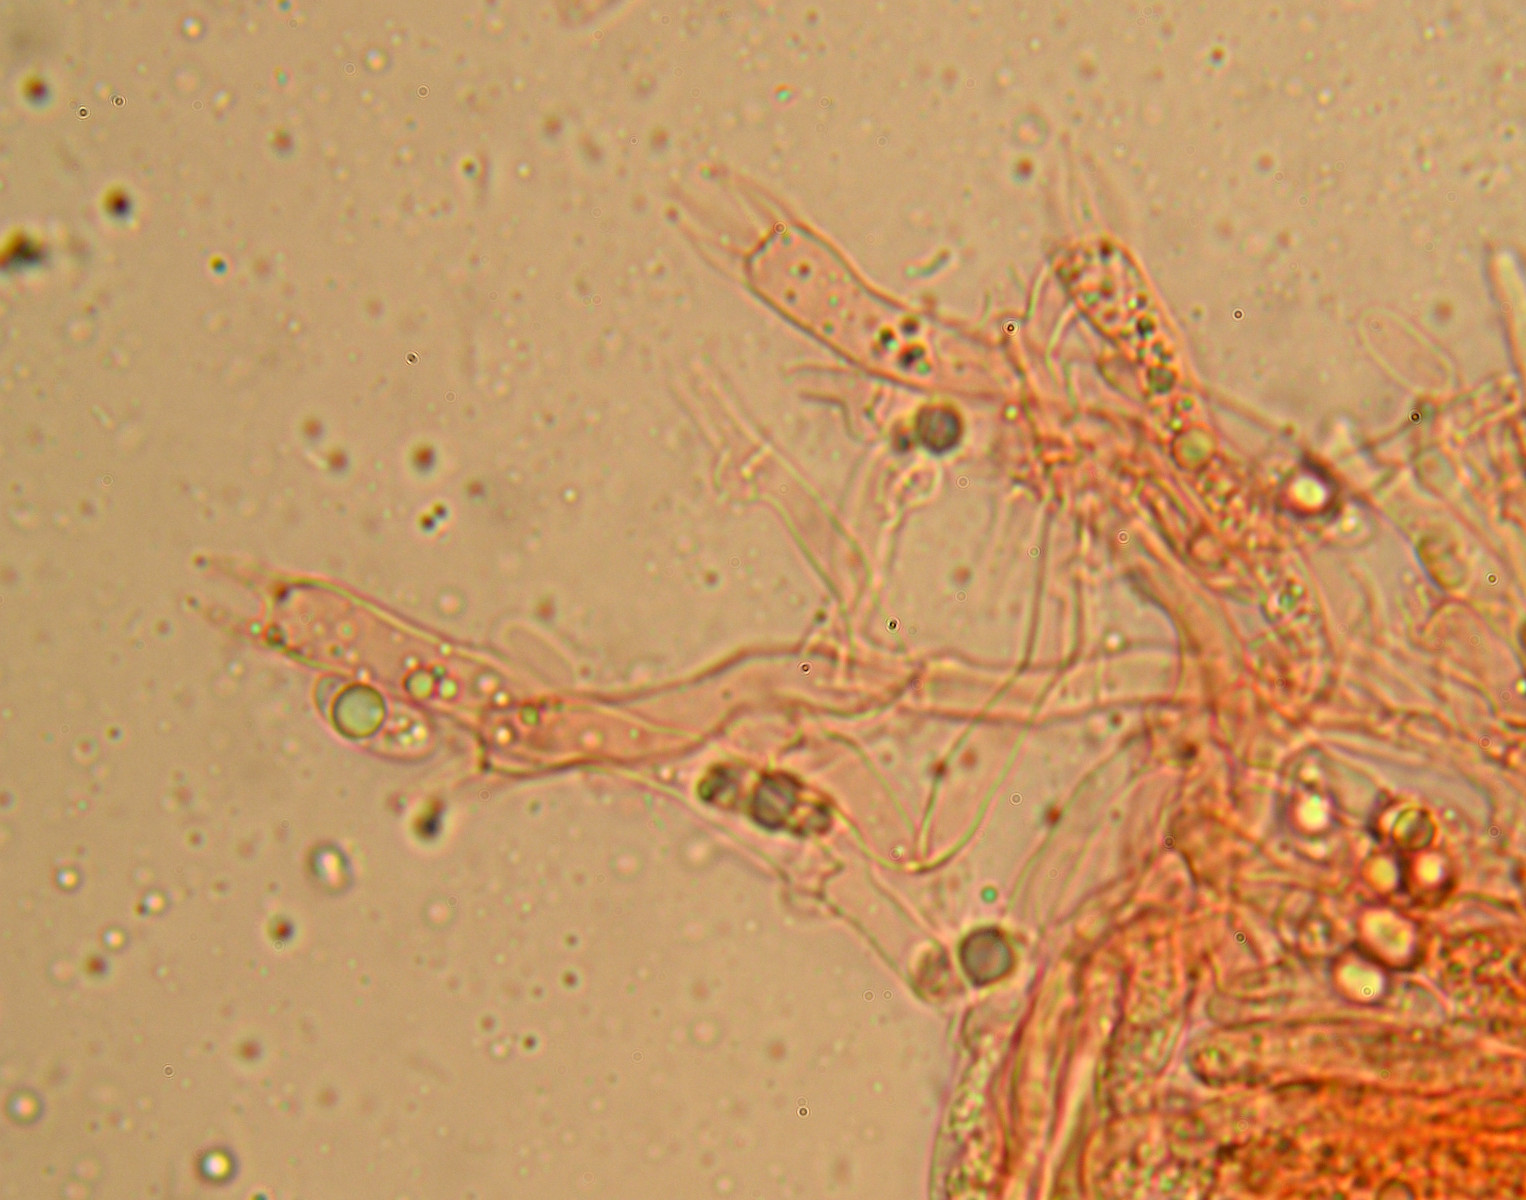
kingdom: Fungi
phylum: Basidiomycota
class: Agaricomycetes
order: Polyporales
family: Hyphodermataceae
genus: Hyphoderma
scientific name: Hyphoderma roseocremeum
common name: lillaplettet kalkskind
